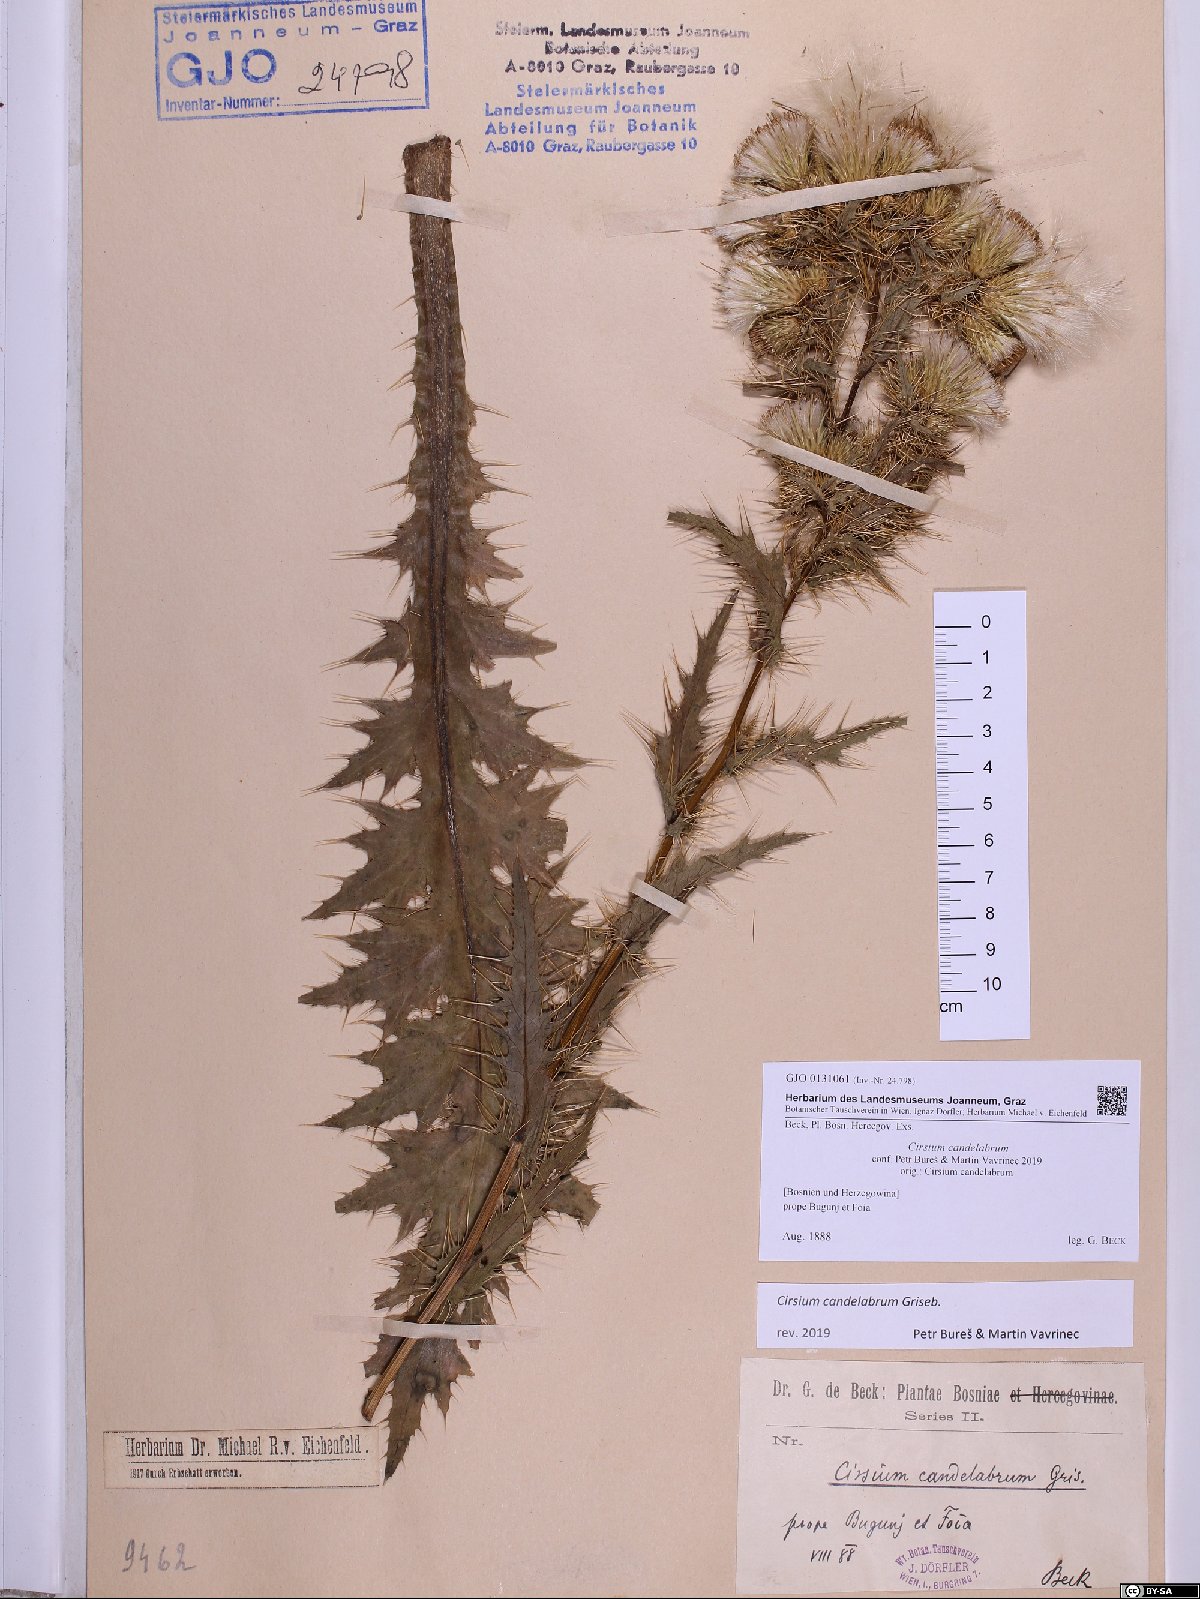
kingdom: Plantae
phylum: Tracheophyta
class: Magnoliopsida
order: Asterales
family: Asteraceae
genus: Cirsium
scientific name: Cirsium candelabrum
